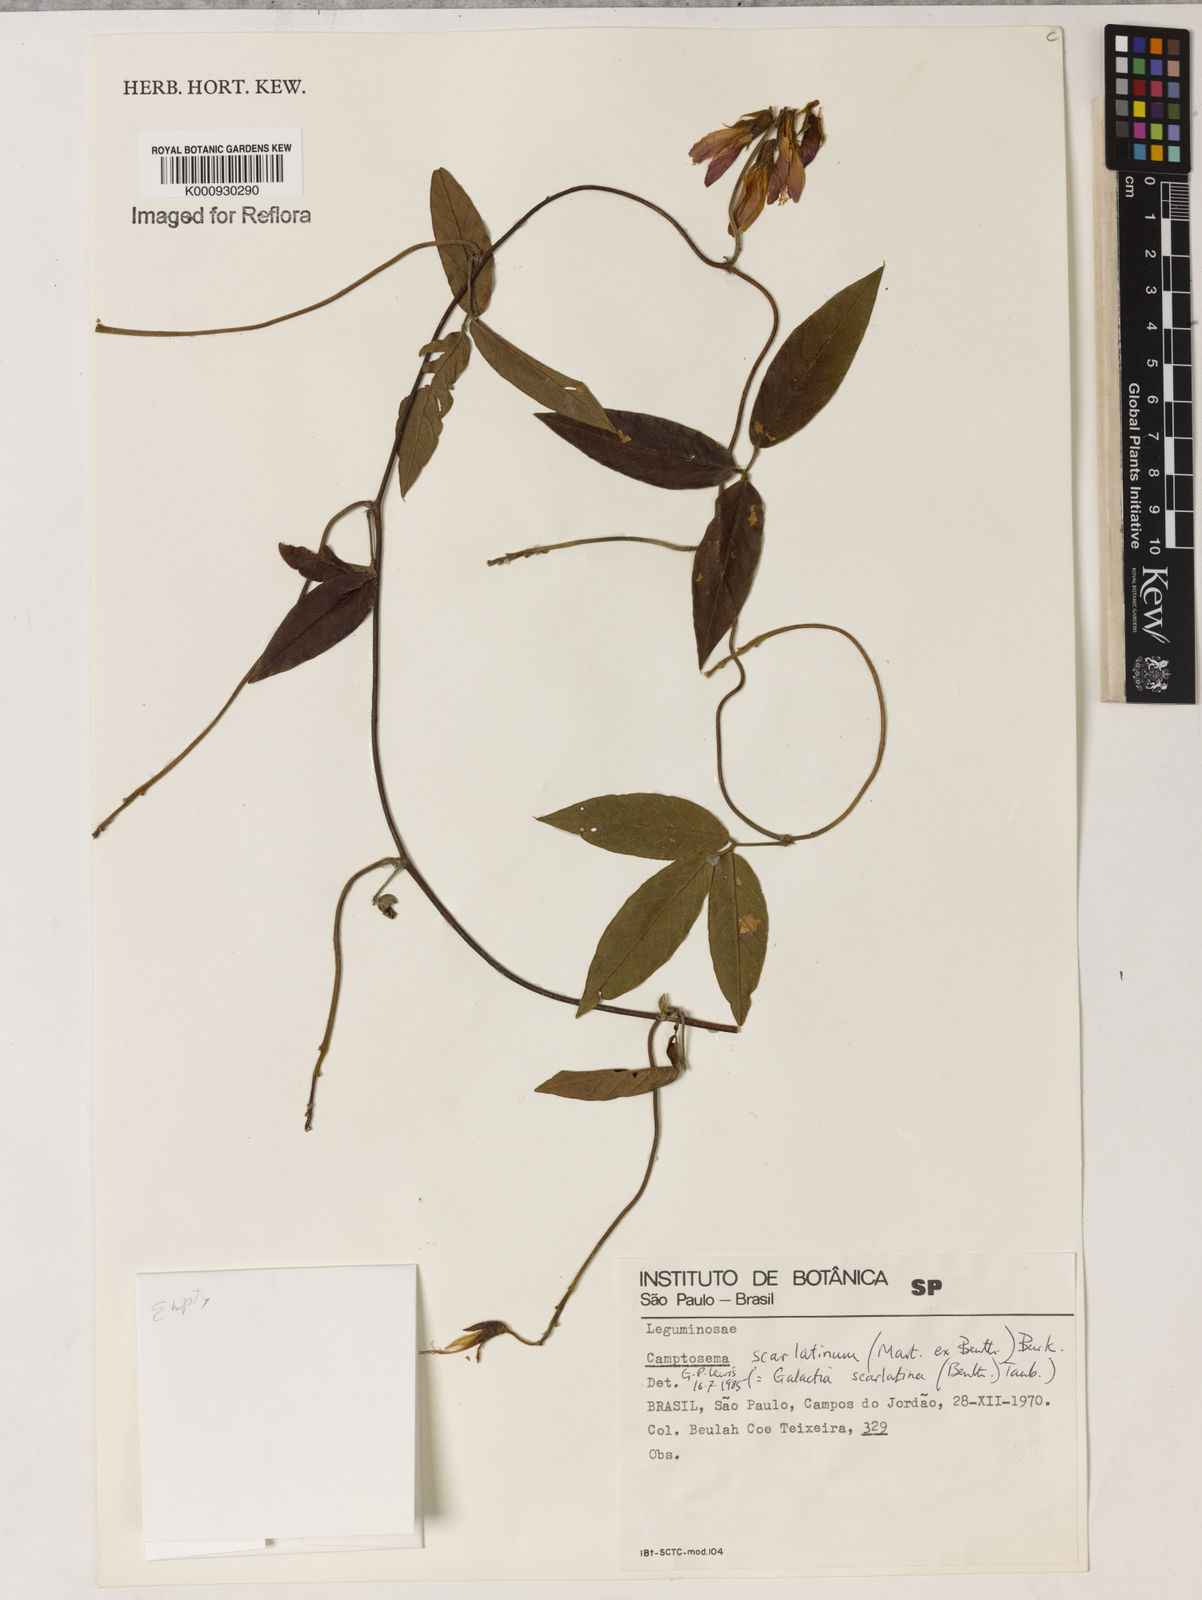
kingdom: Plantae
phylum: Tracheophyta
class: Magnoliopsida
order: Fabales
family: Fabaceae
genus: Betencourtia
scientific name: Betencourtia scarlatina
